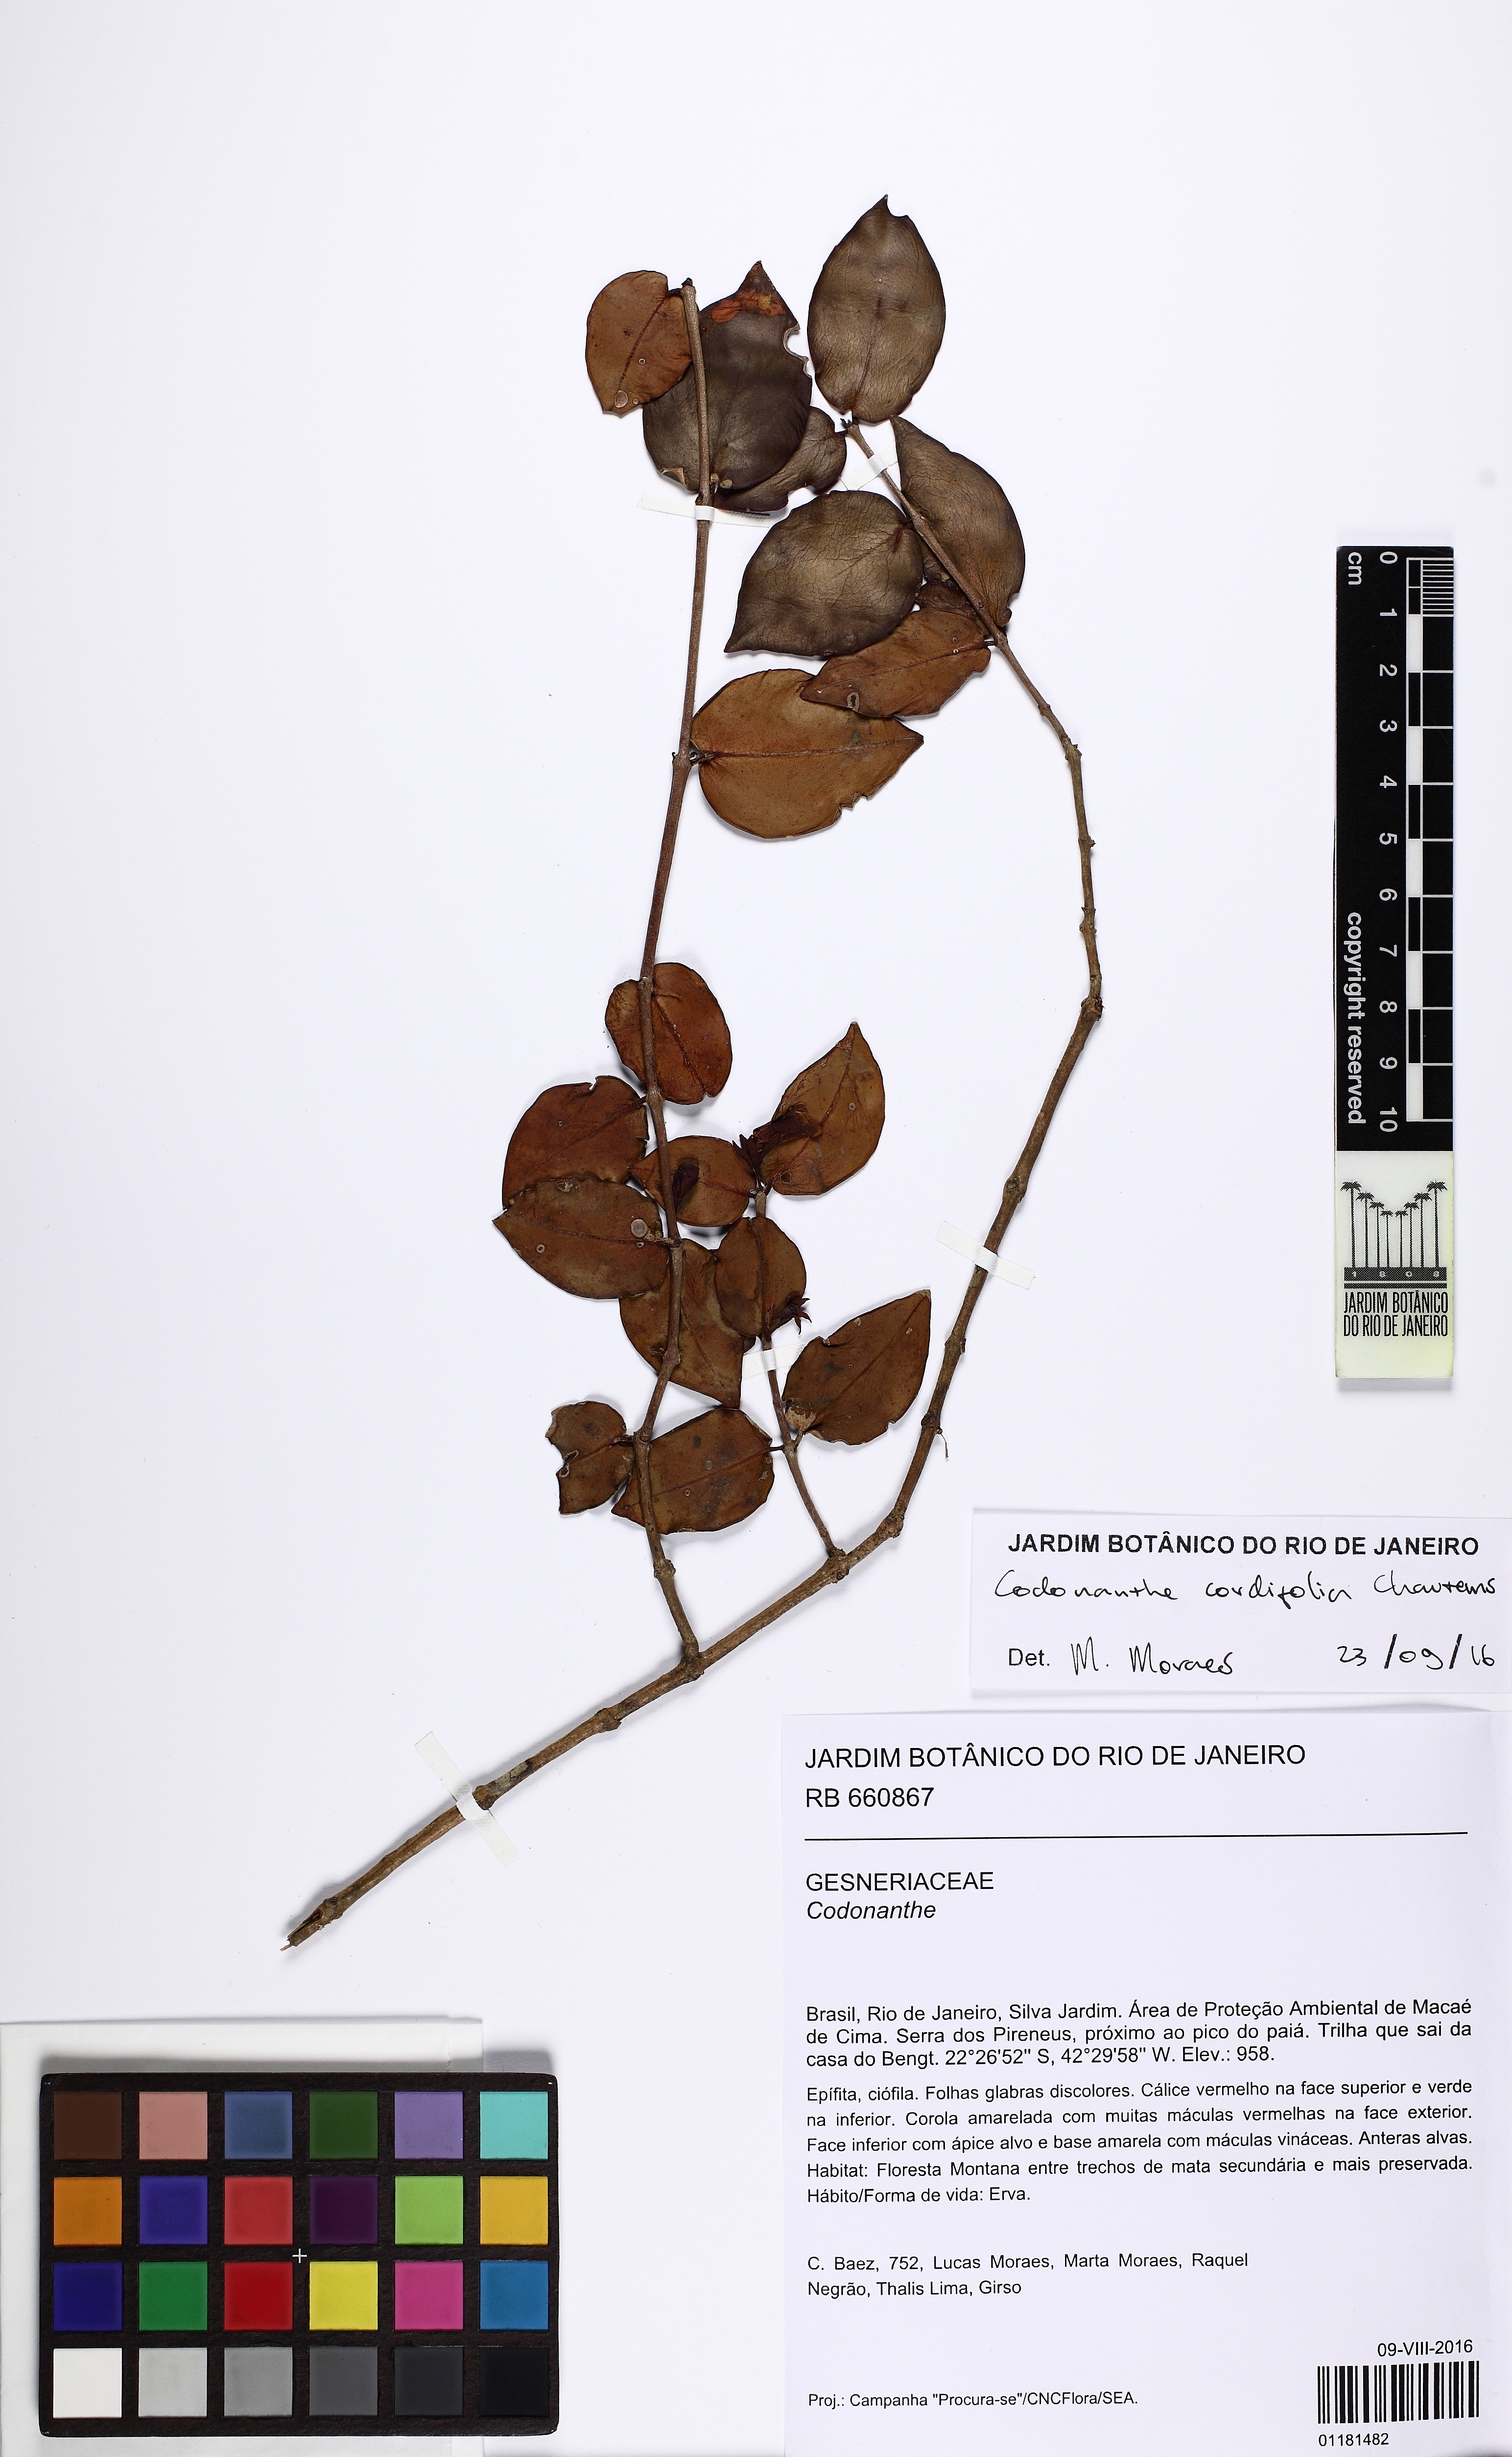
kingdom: Plantae
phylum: Tracheophyta
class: Magnoliopsida
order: Lamiales
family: Gesneriaceae
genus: Codonanthe
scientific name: Codonanthe cordifolia
